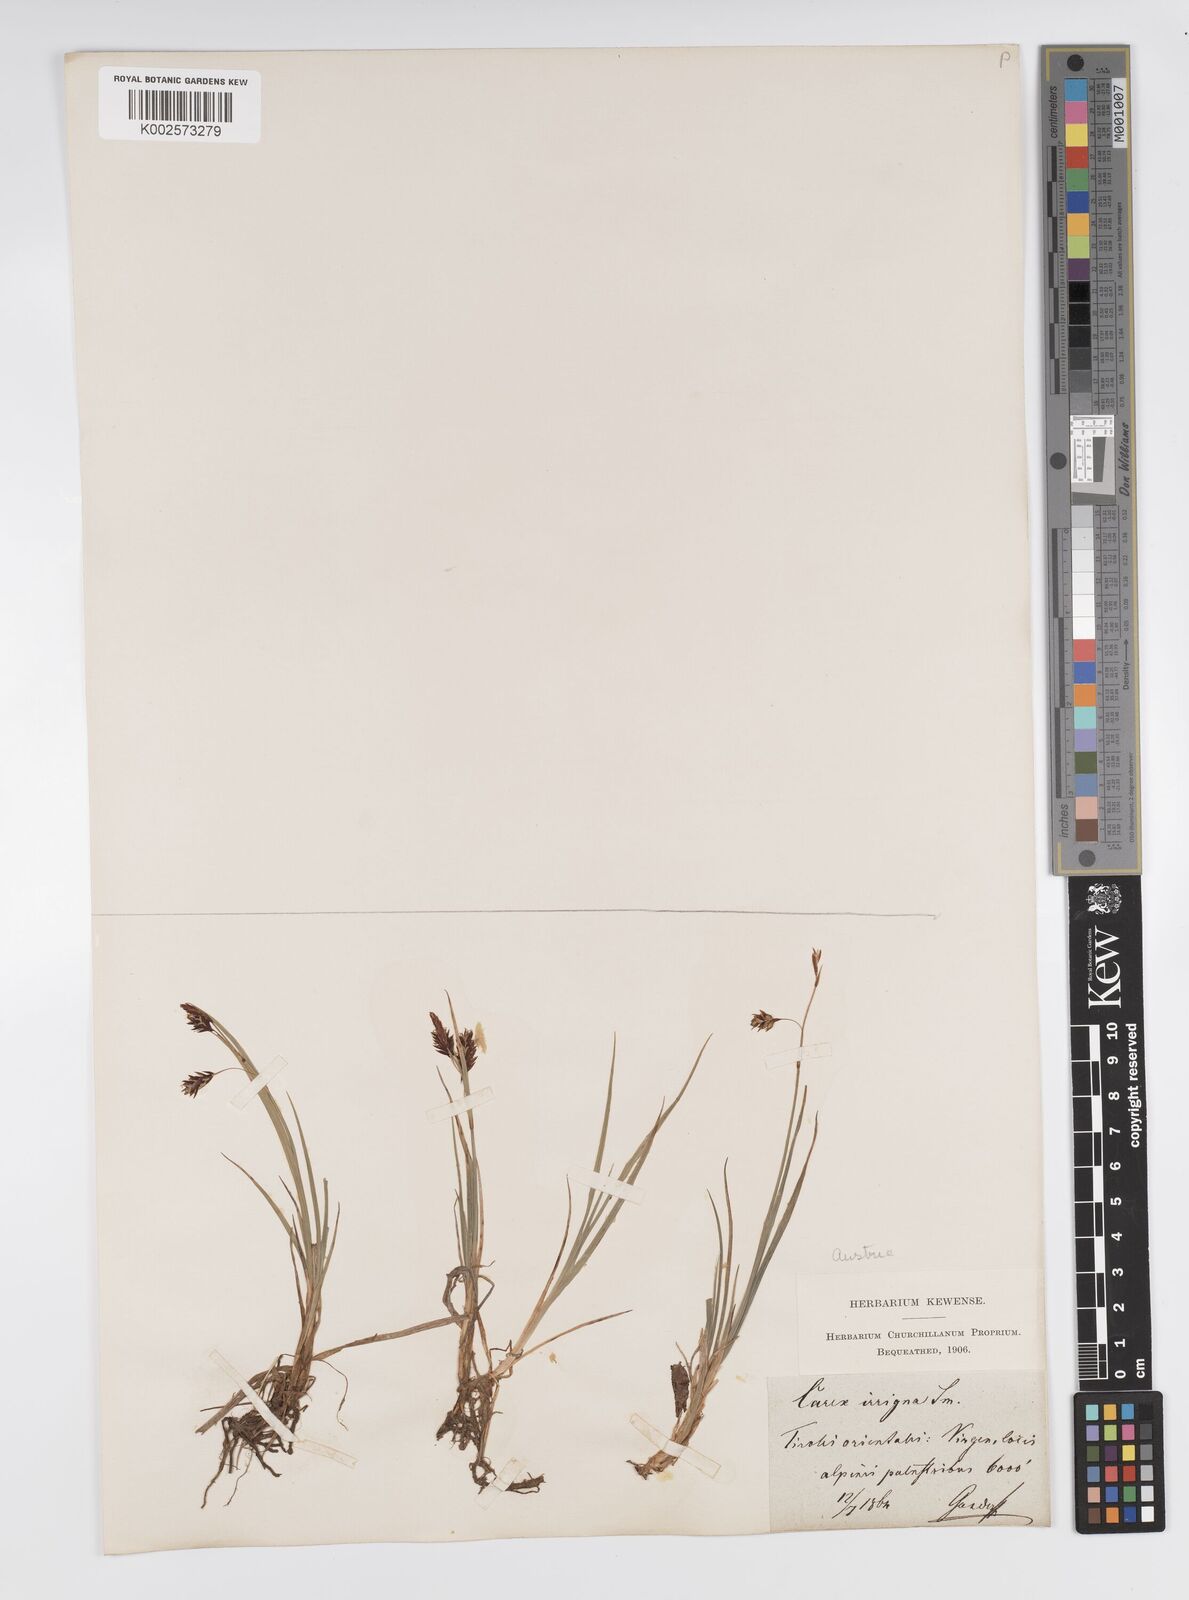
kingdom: Plantae
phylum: Tracheophyta
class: Liliopsida
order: Poales
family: Cyperaceae
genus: Carex
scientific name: Carex magellanica
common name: Bog sedge
